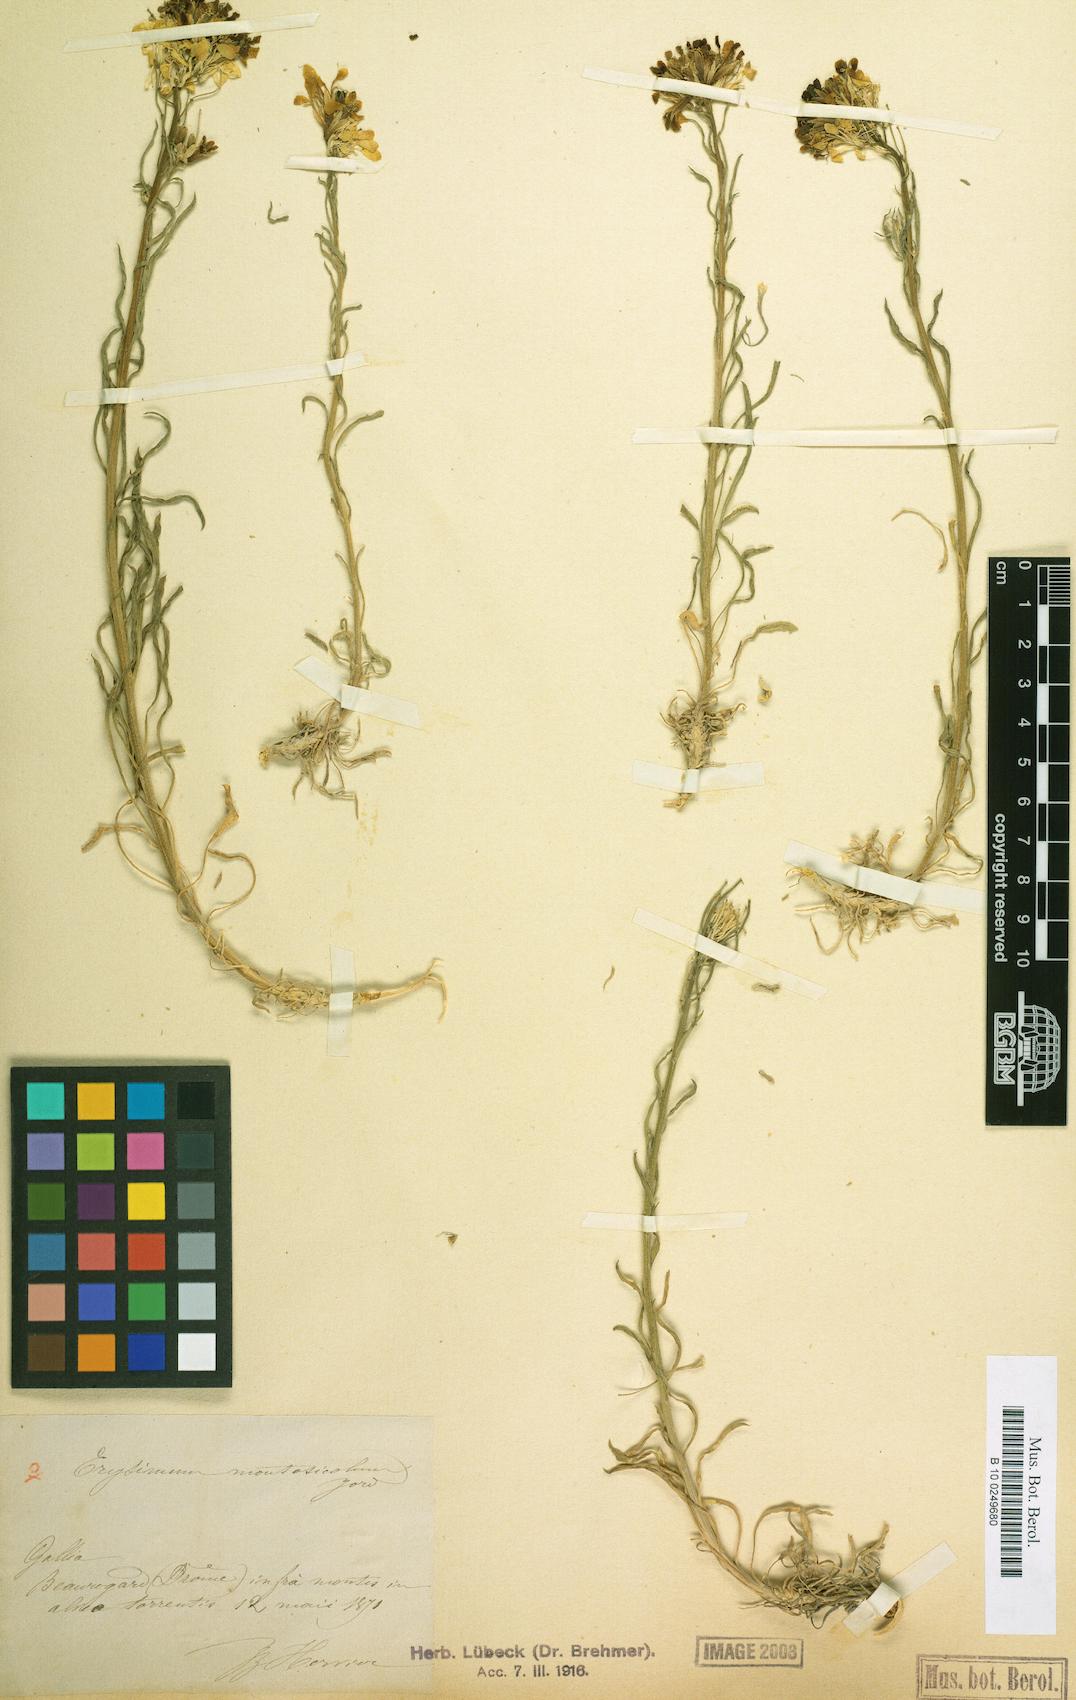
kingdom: Plantae
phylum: Tracheophyta
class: Magnoliopsida
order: Brassicales
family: Brassicaceae
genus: Erysimum
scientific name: Erysimum montosicolum
